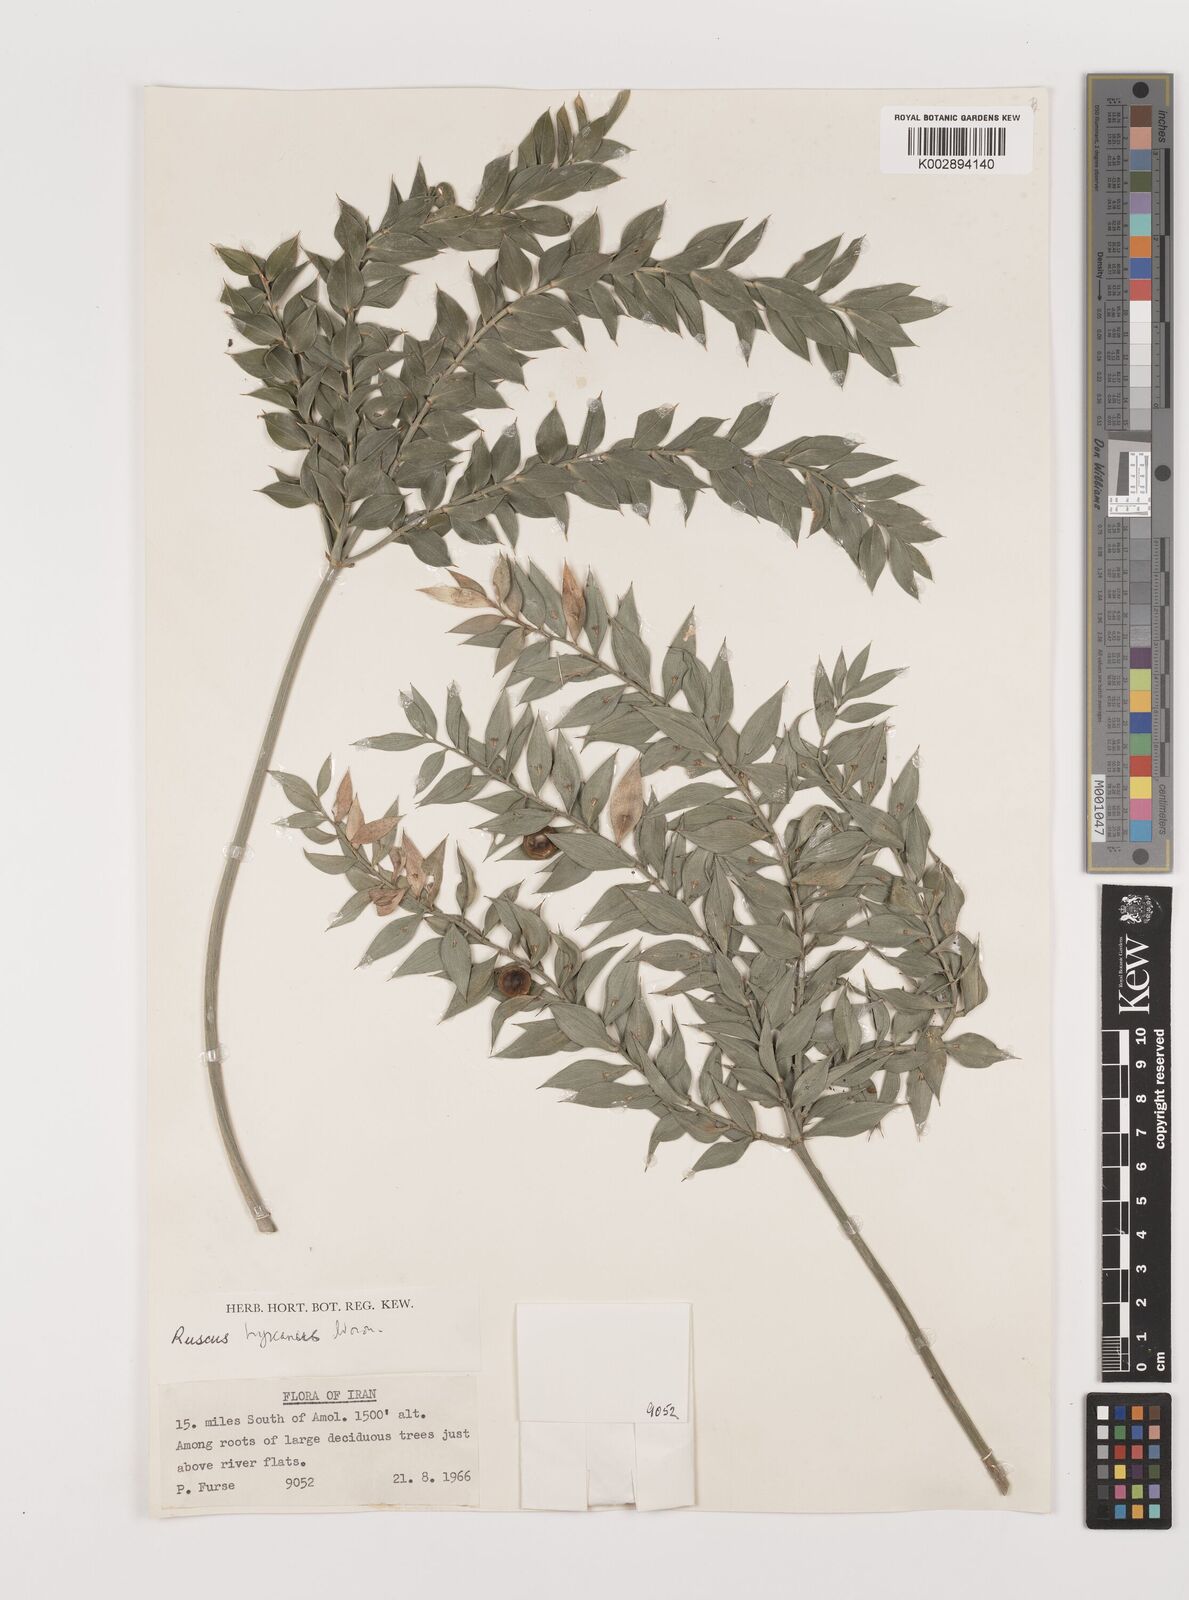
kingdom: Plantae
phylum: Tracheophyta
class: Liliopsida
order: Asparagales
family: Asparagaceae
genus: Ruscus
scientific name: Ruscus hyrcanus
